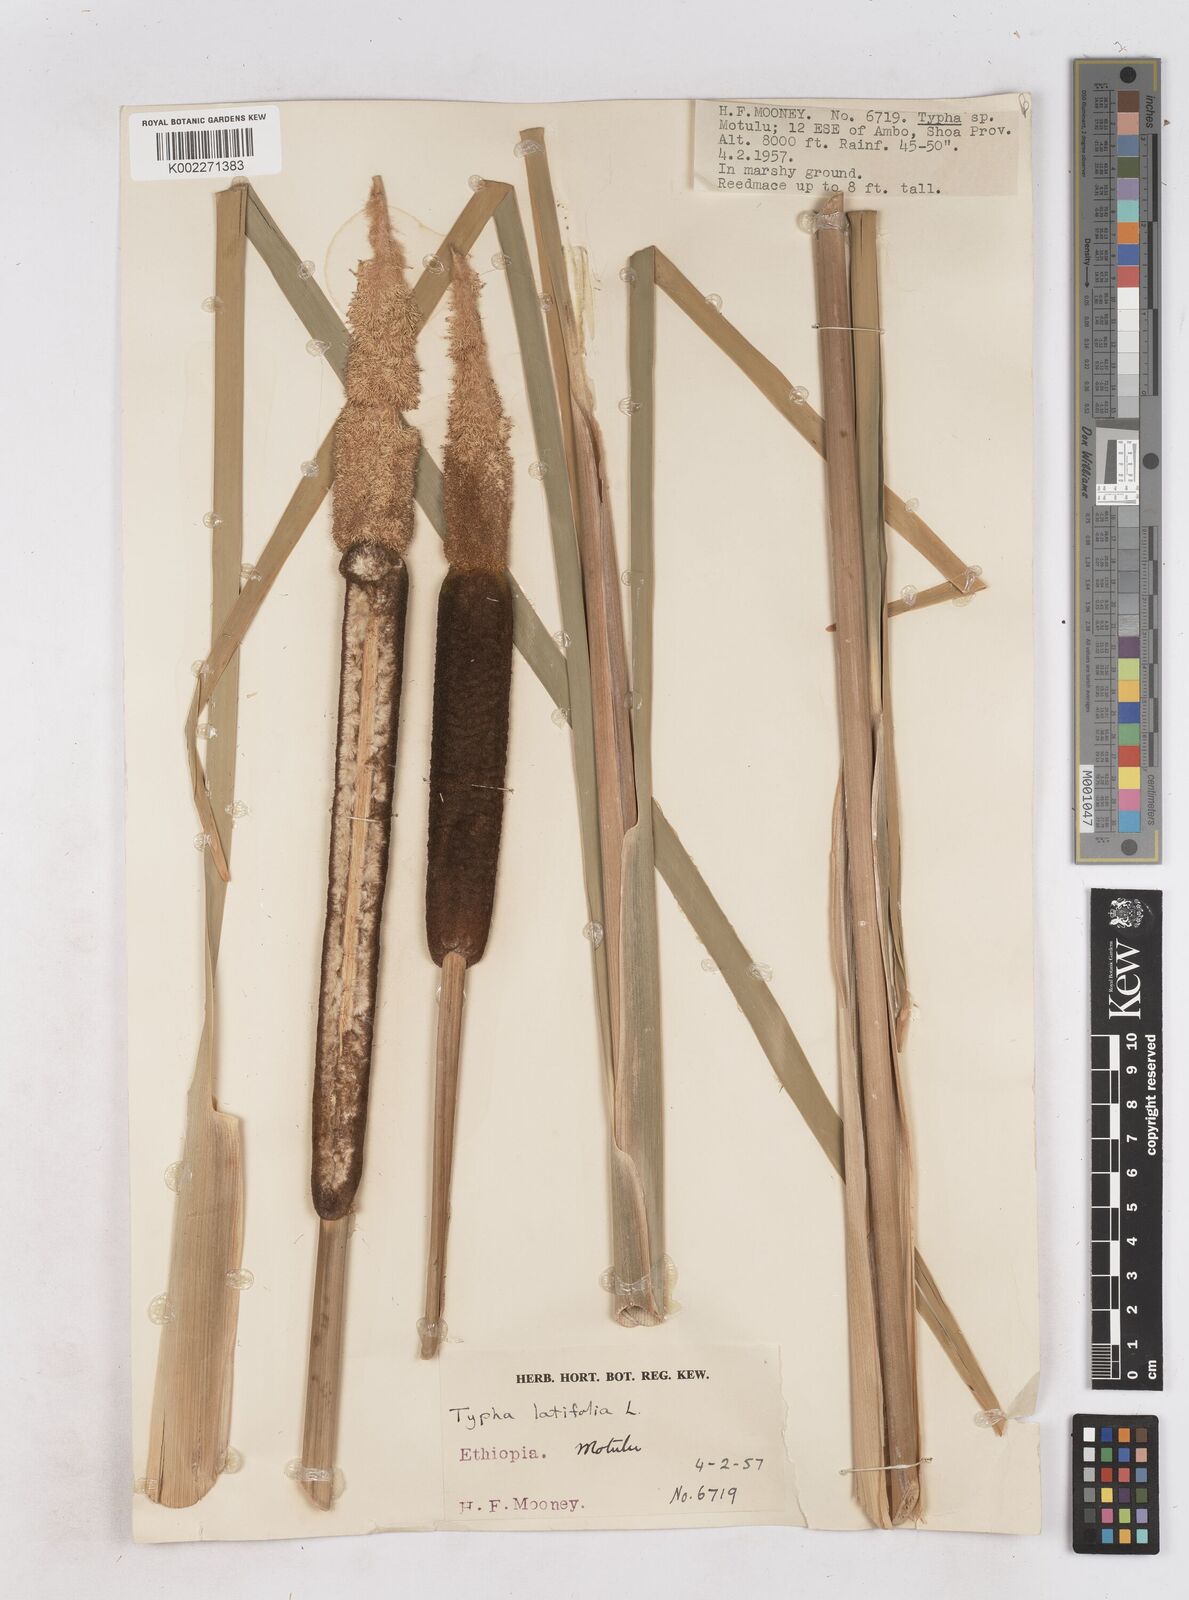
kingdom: Plantae
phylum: Tracheophyta
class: Liliopsida
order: Poales
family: Typhaceae
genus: Typha
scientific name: Typha latifolia
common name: Broadleaf cattail
